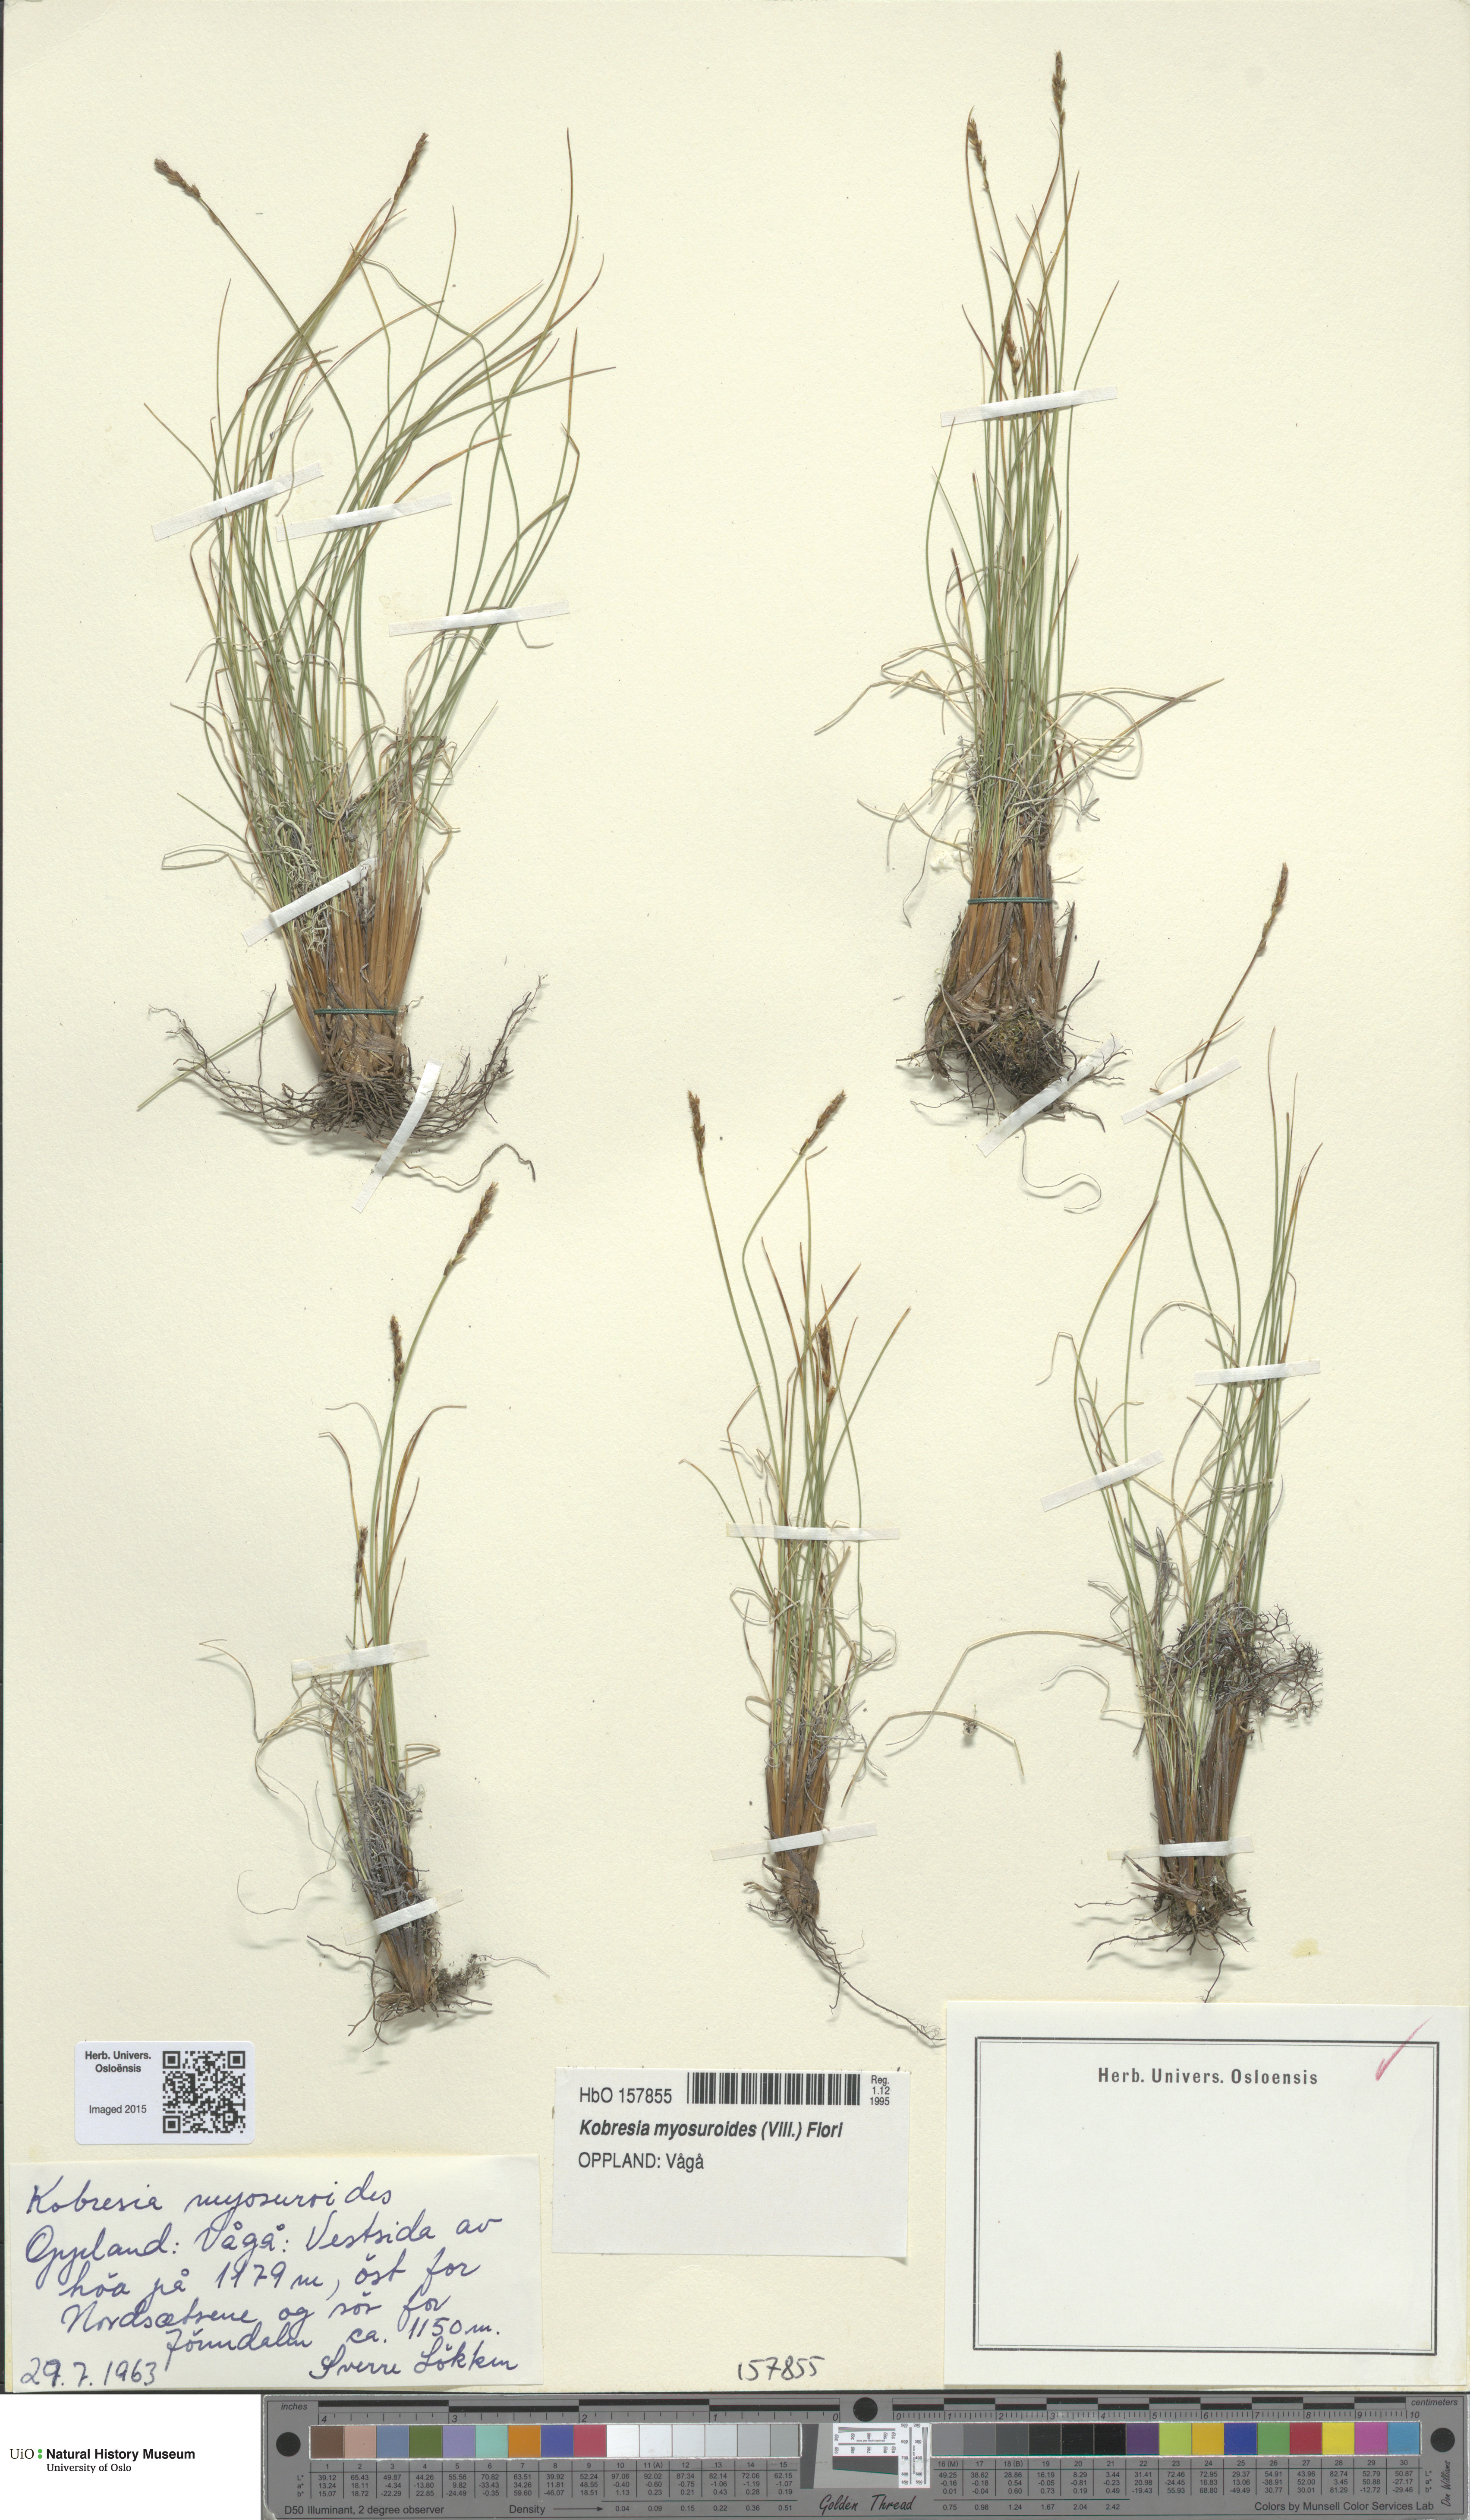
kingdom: Plantae
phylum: Tracheophyta
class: Liliopsida
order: Poales
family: Cyperaceae
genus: Carex
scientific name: Carex myosuroides
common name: Bellard's bog sedge
